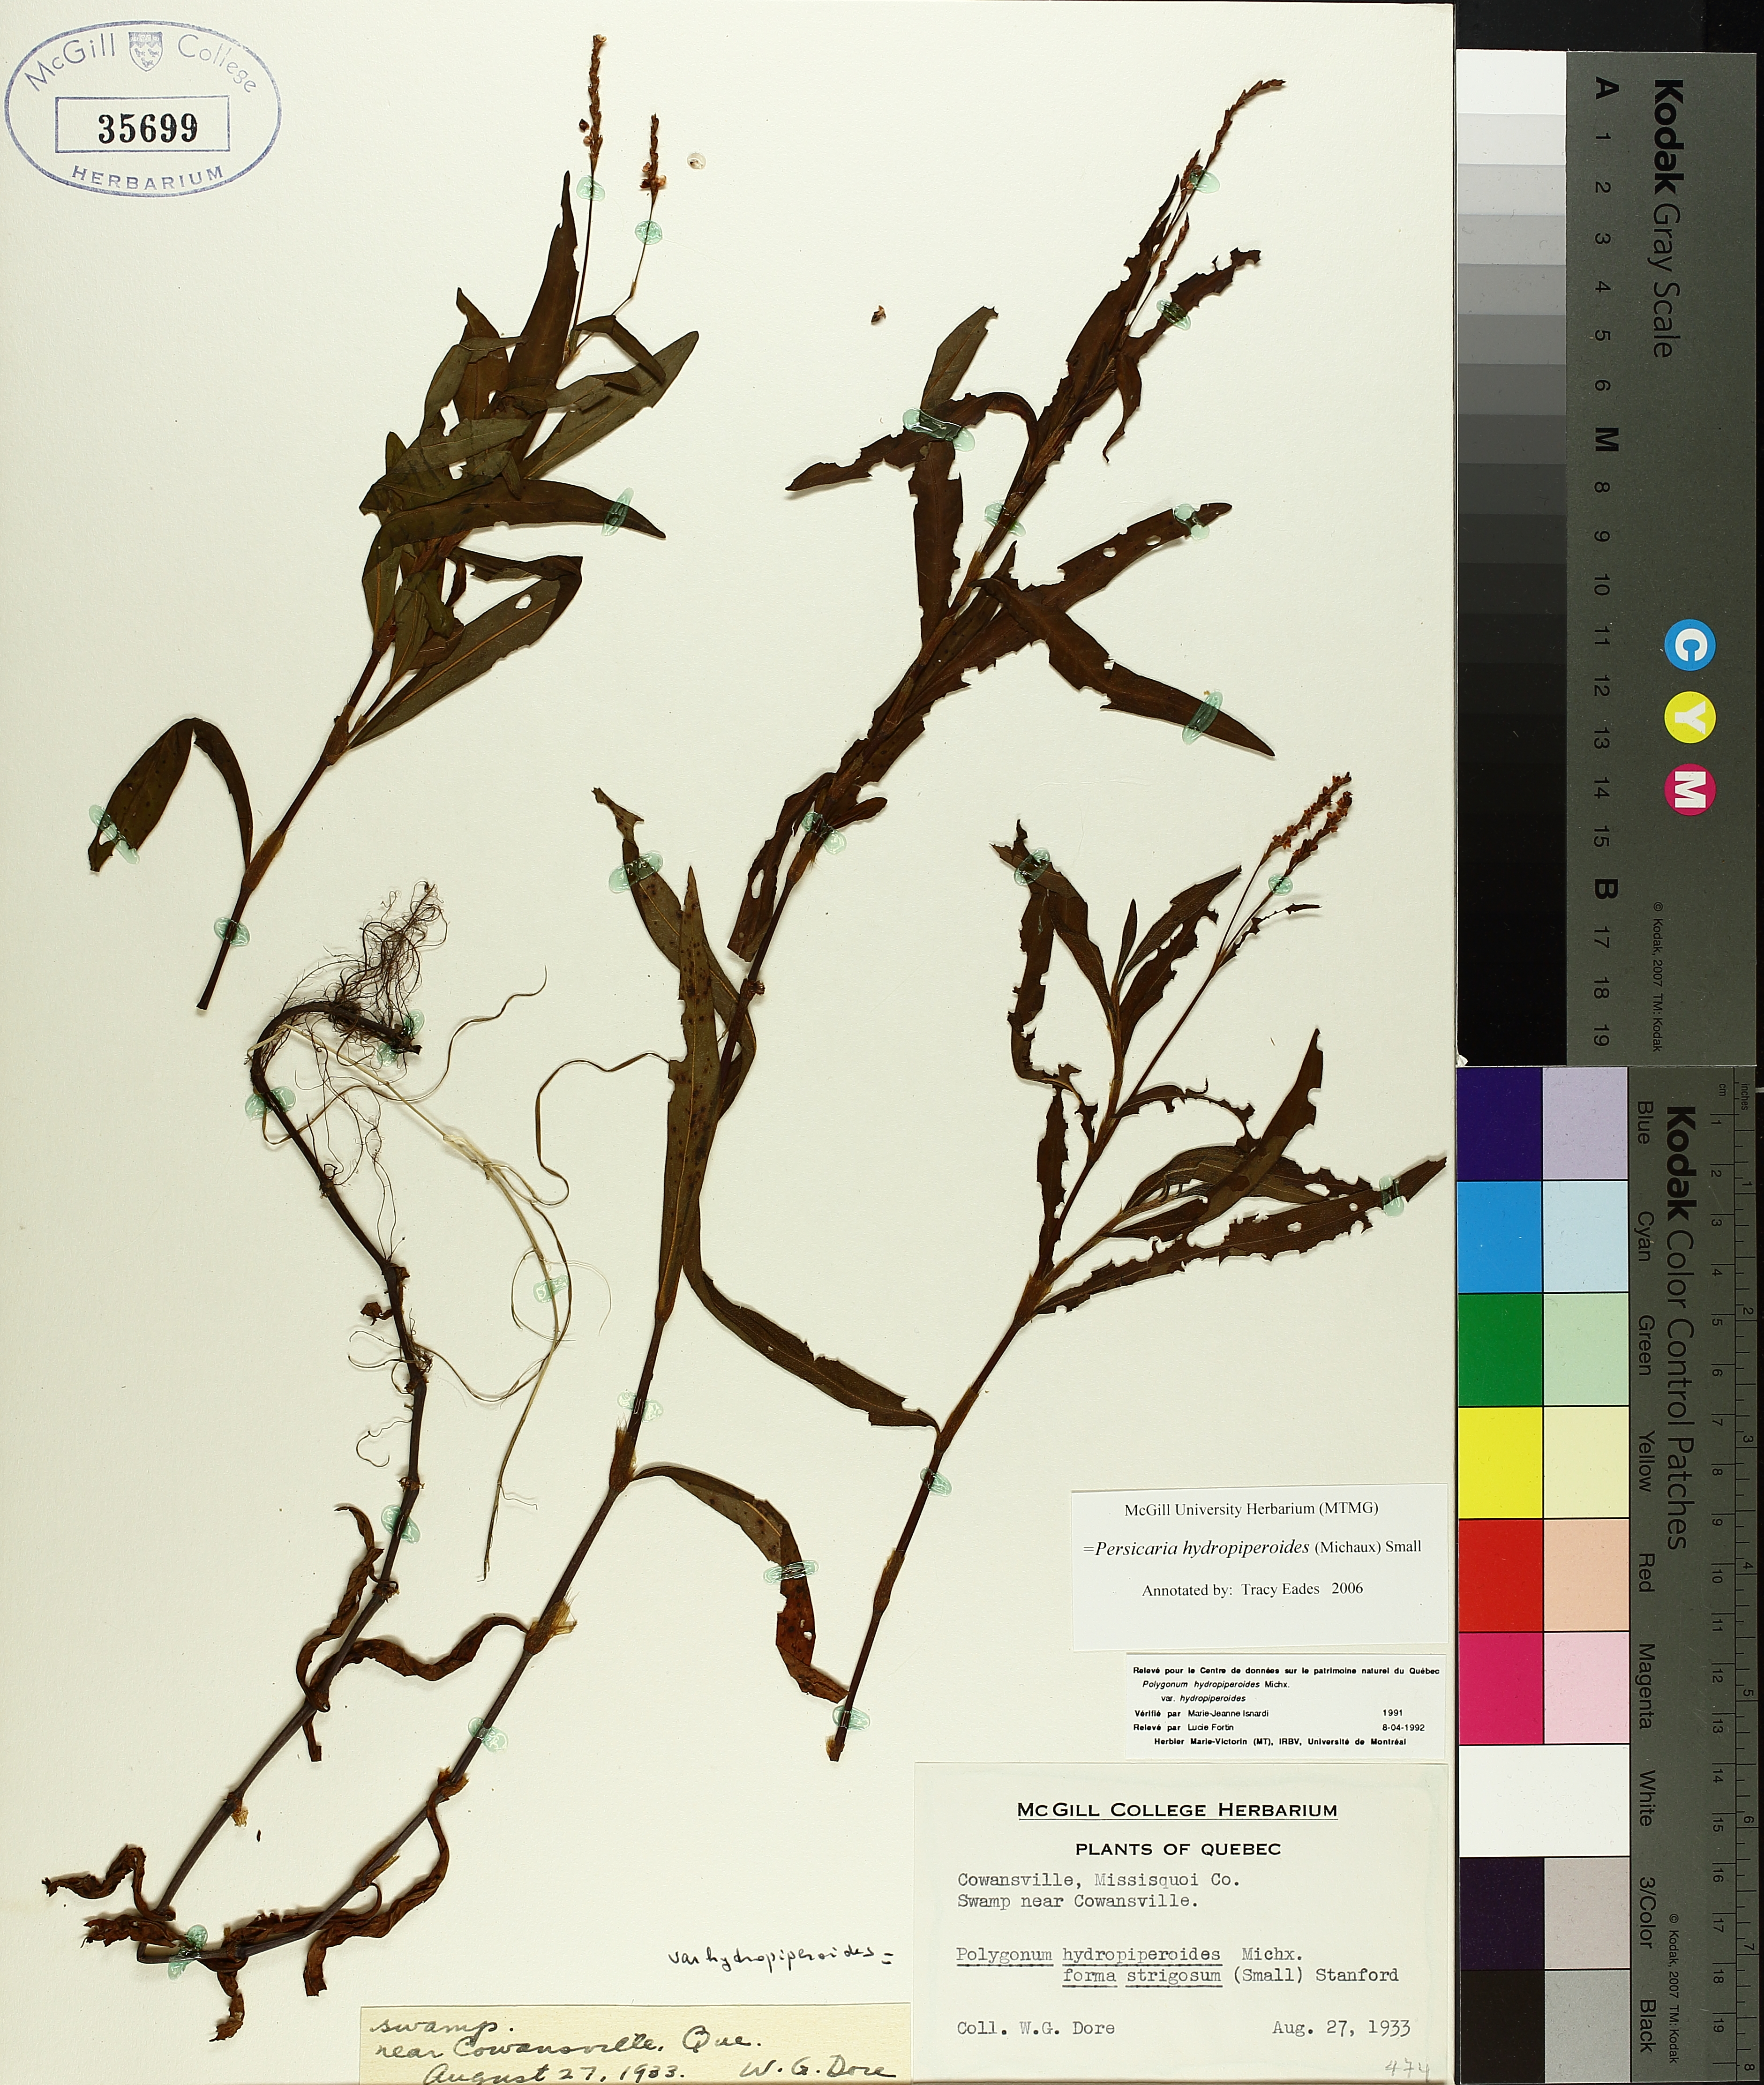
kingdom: Plantae
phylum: Tracheophyta
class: Magnoliopsida
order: Caryophyllales
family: Polygonaceae
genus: Persicaria
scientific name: Persicaria hydropiperoides
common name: Swamp smartweed
